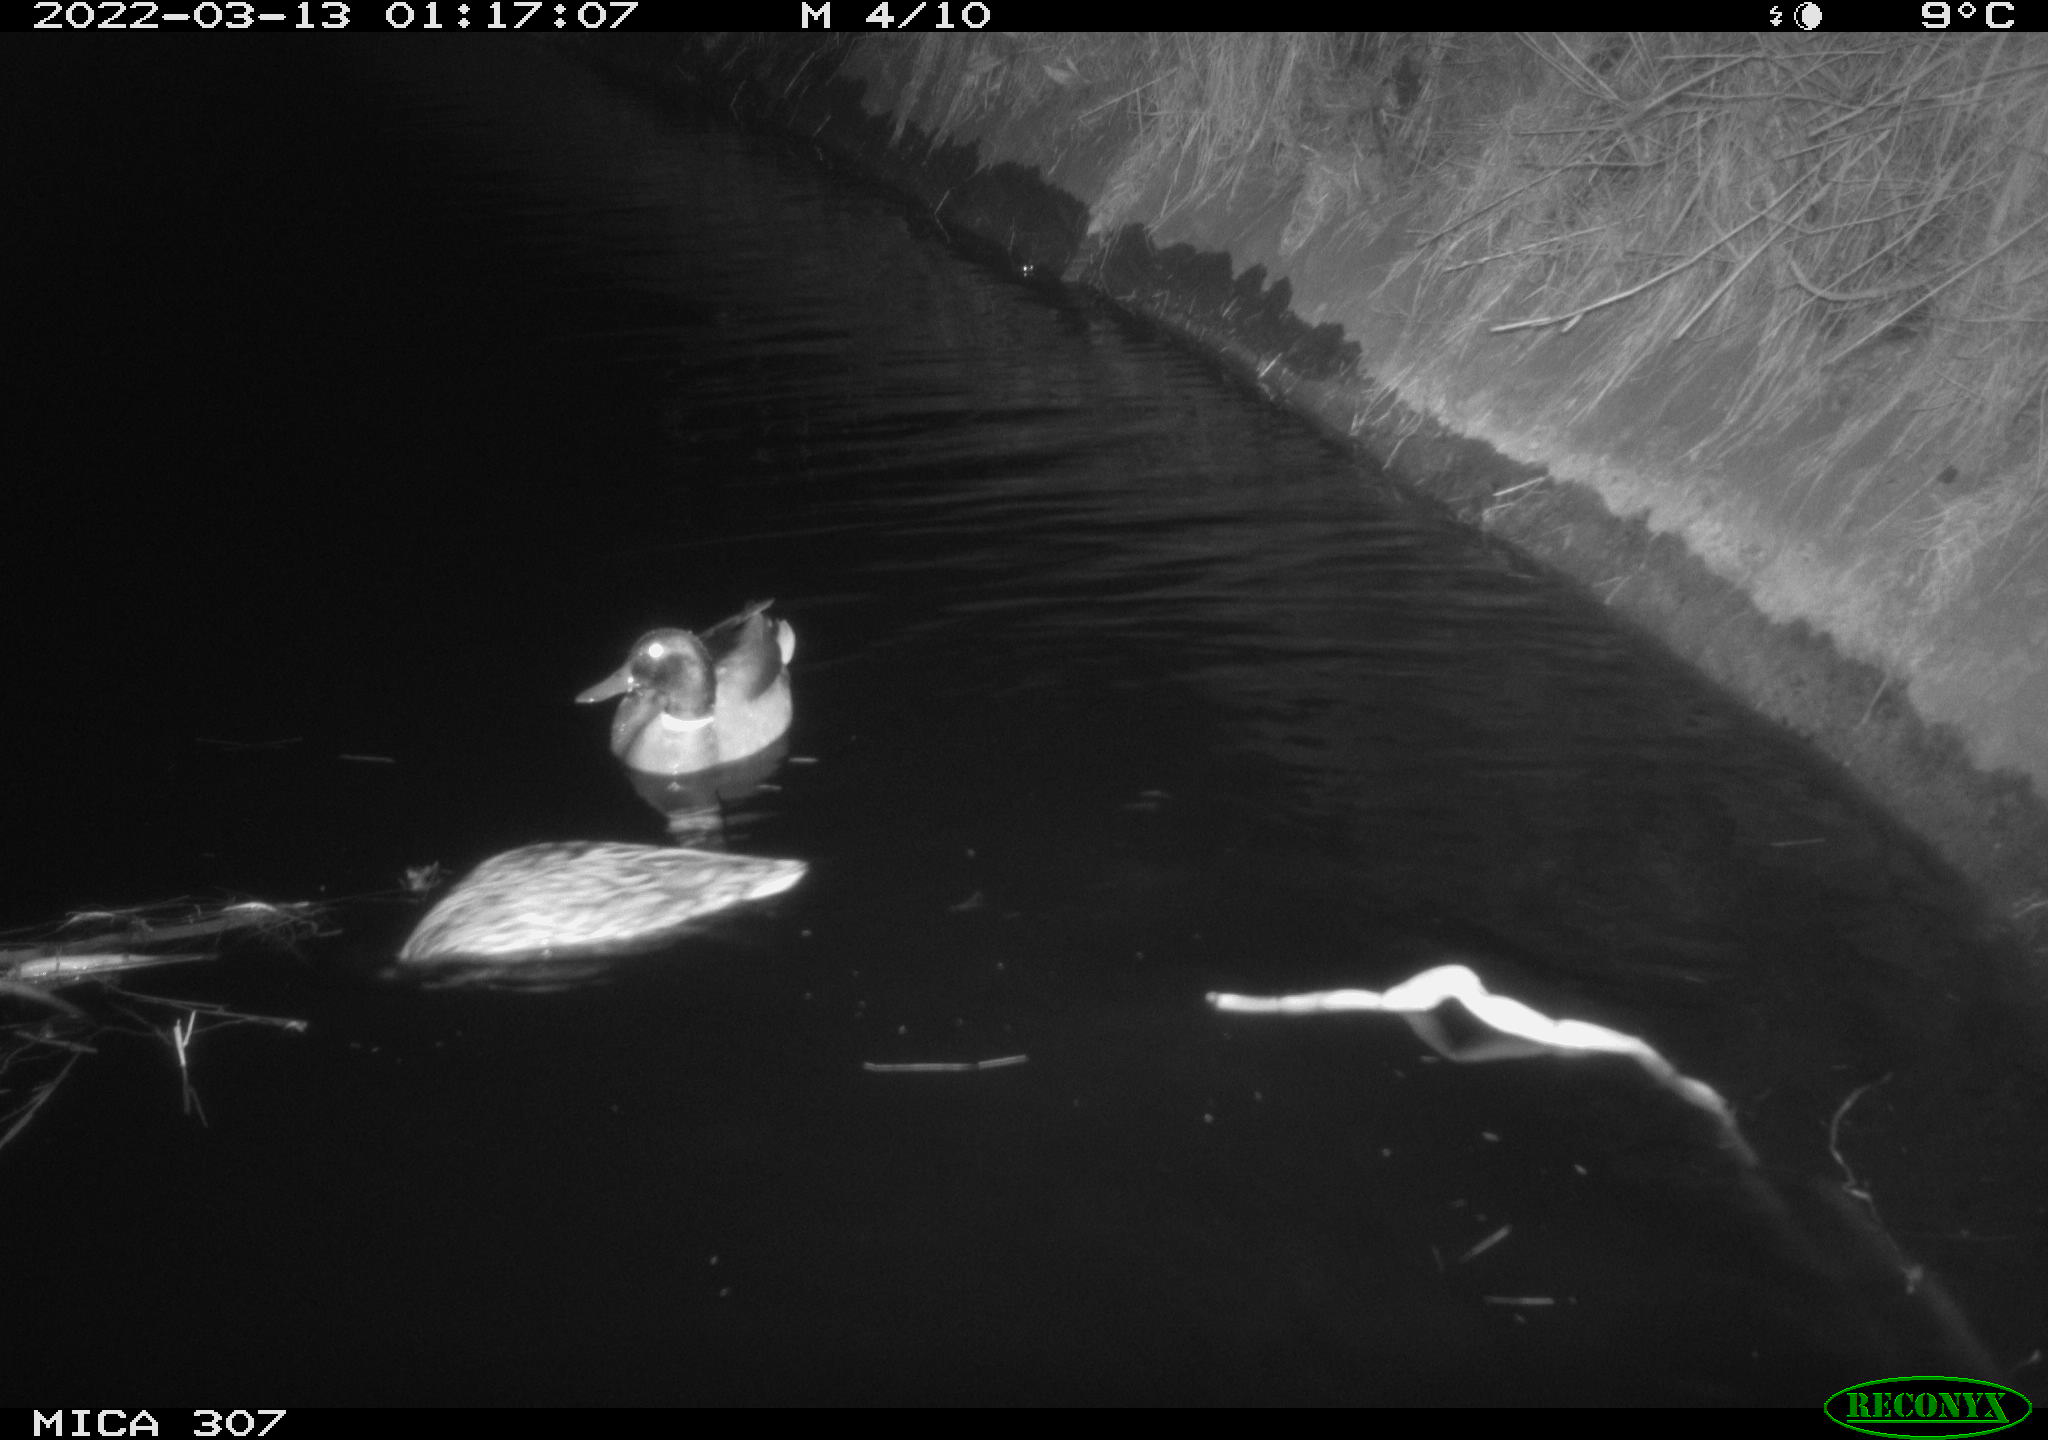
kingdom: Animalia
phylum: Chordata
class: Aves
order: Anseriformes
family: Anatidae
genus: Anas
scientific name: Anas platyrhynchos
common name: Mallard
